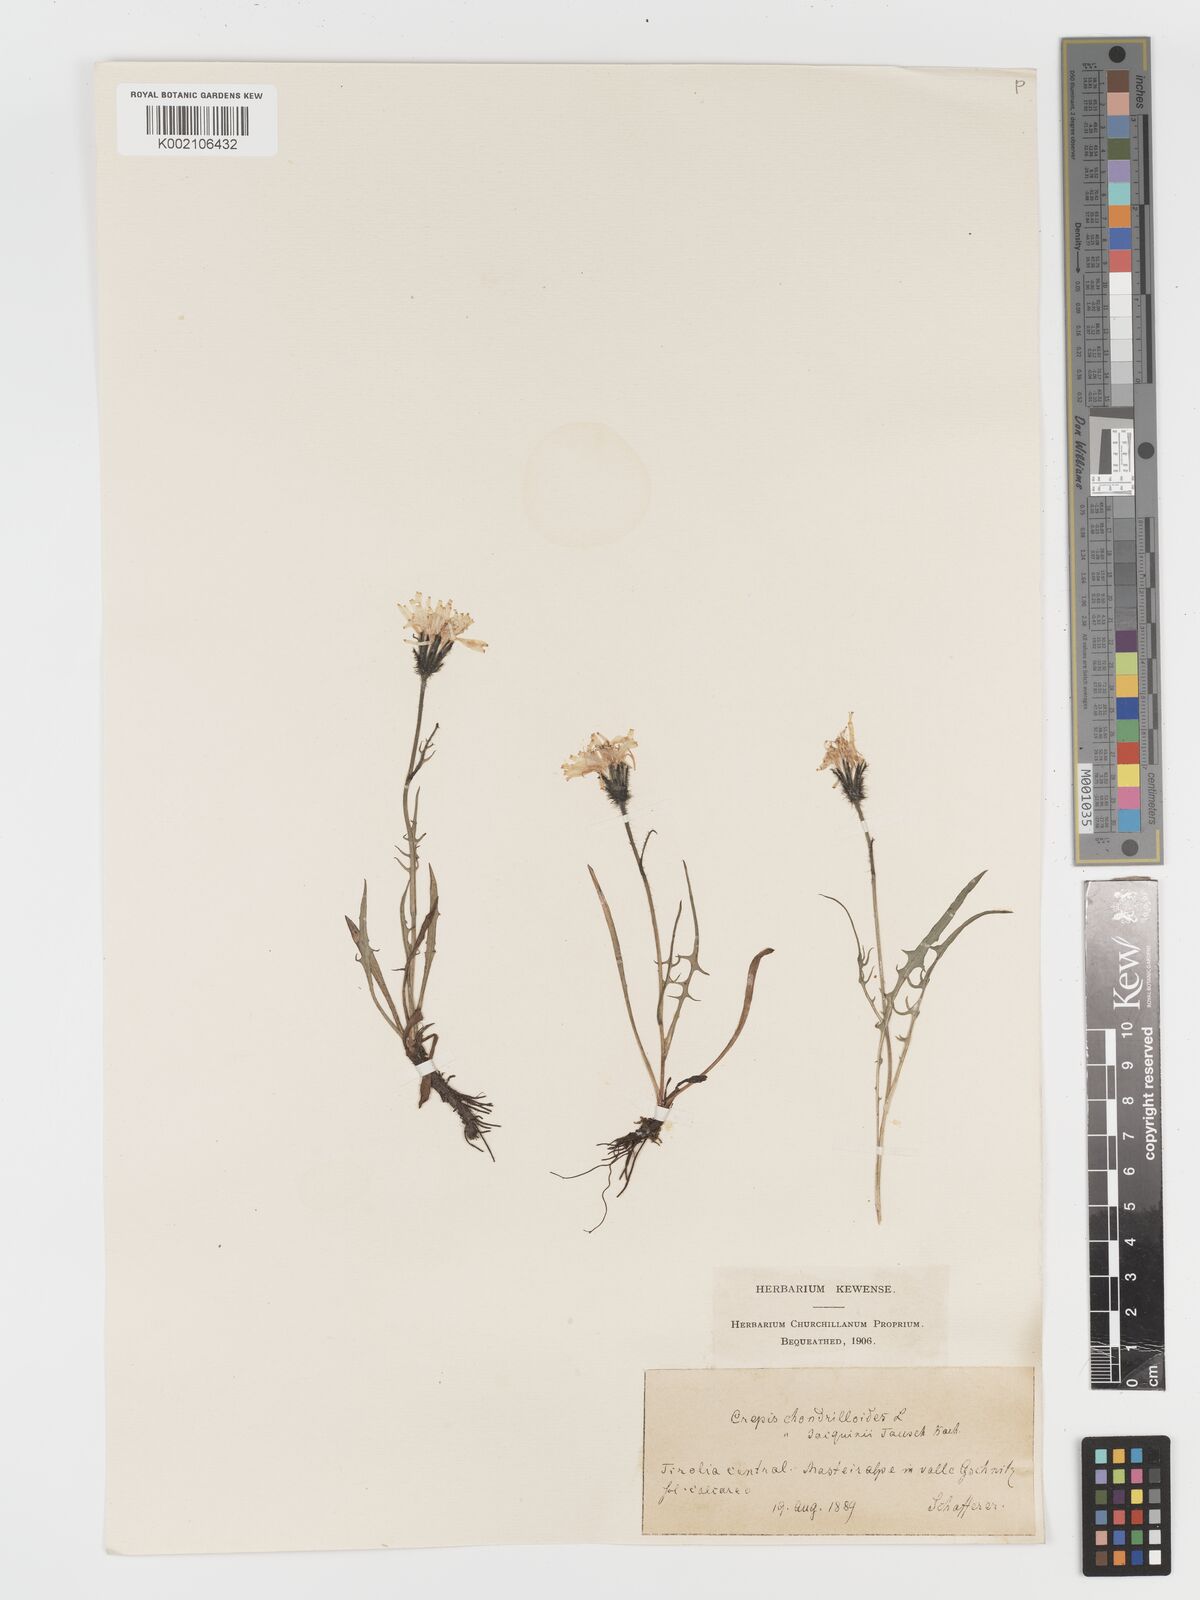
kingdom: Plantae
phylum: Tracheophyta
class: Magnoliopsida
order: Asterales
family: Asteraceae
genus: Crepis
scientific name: Crepis jacquinii
